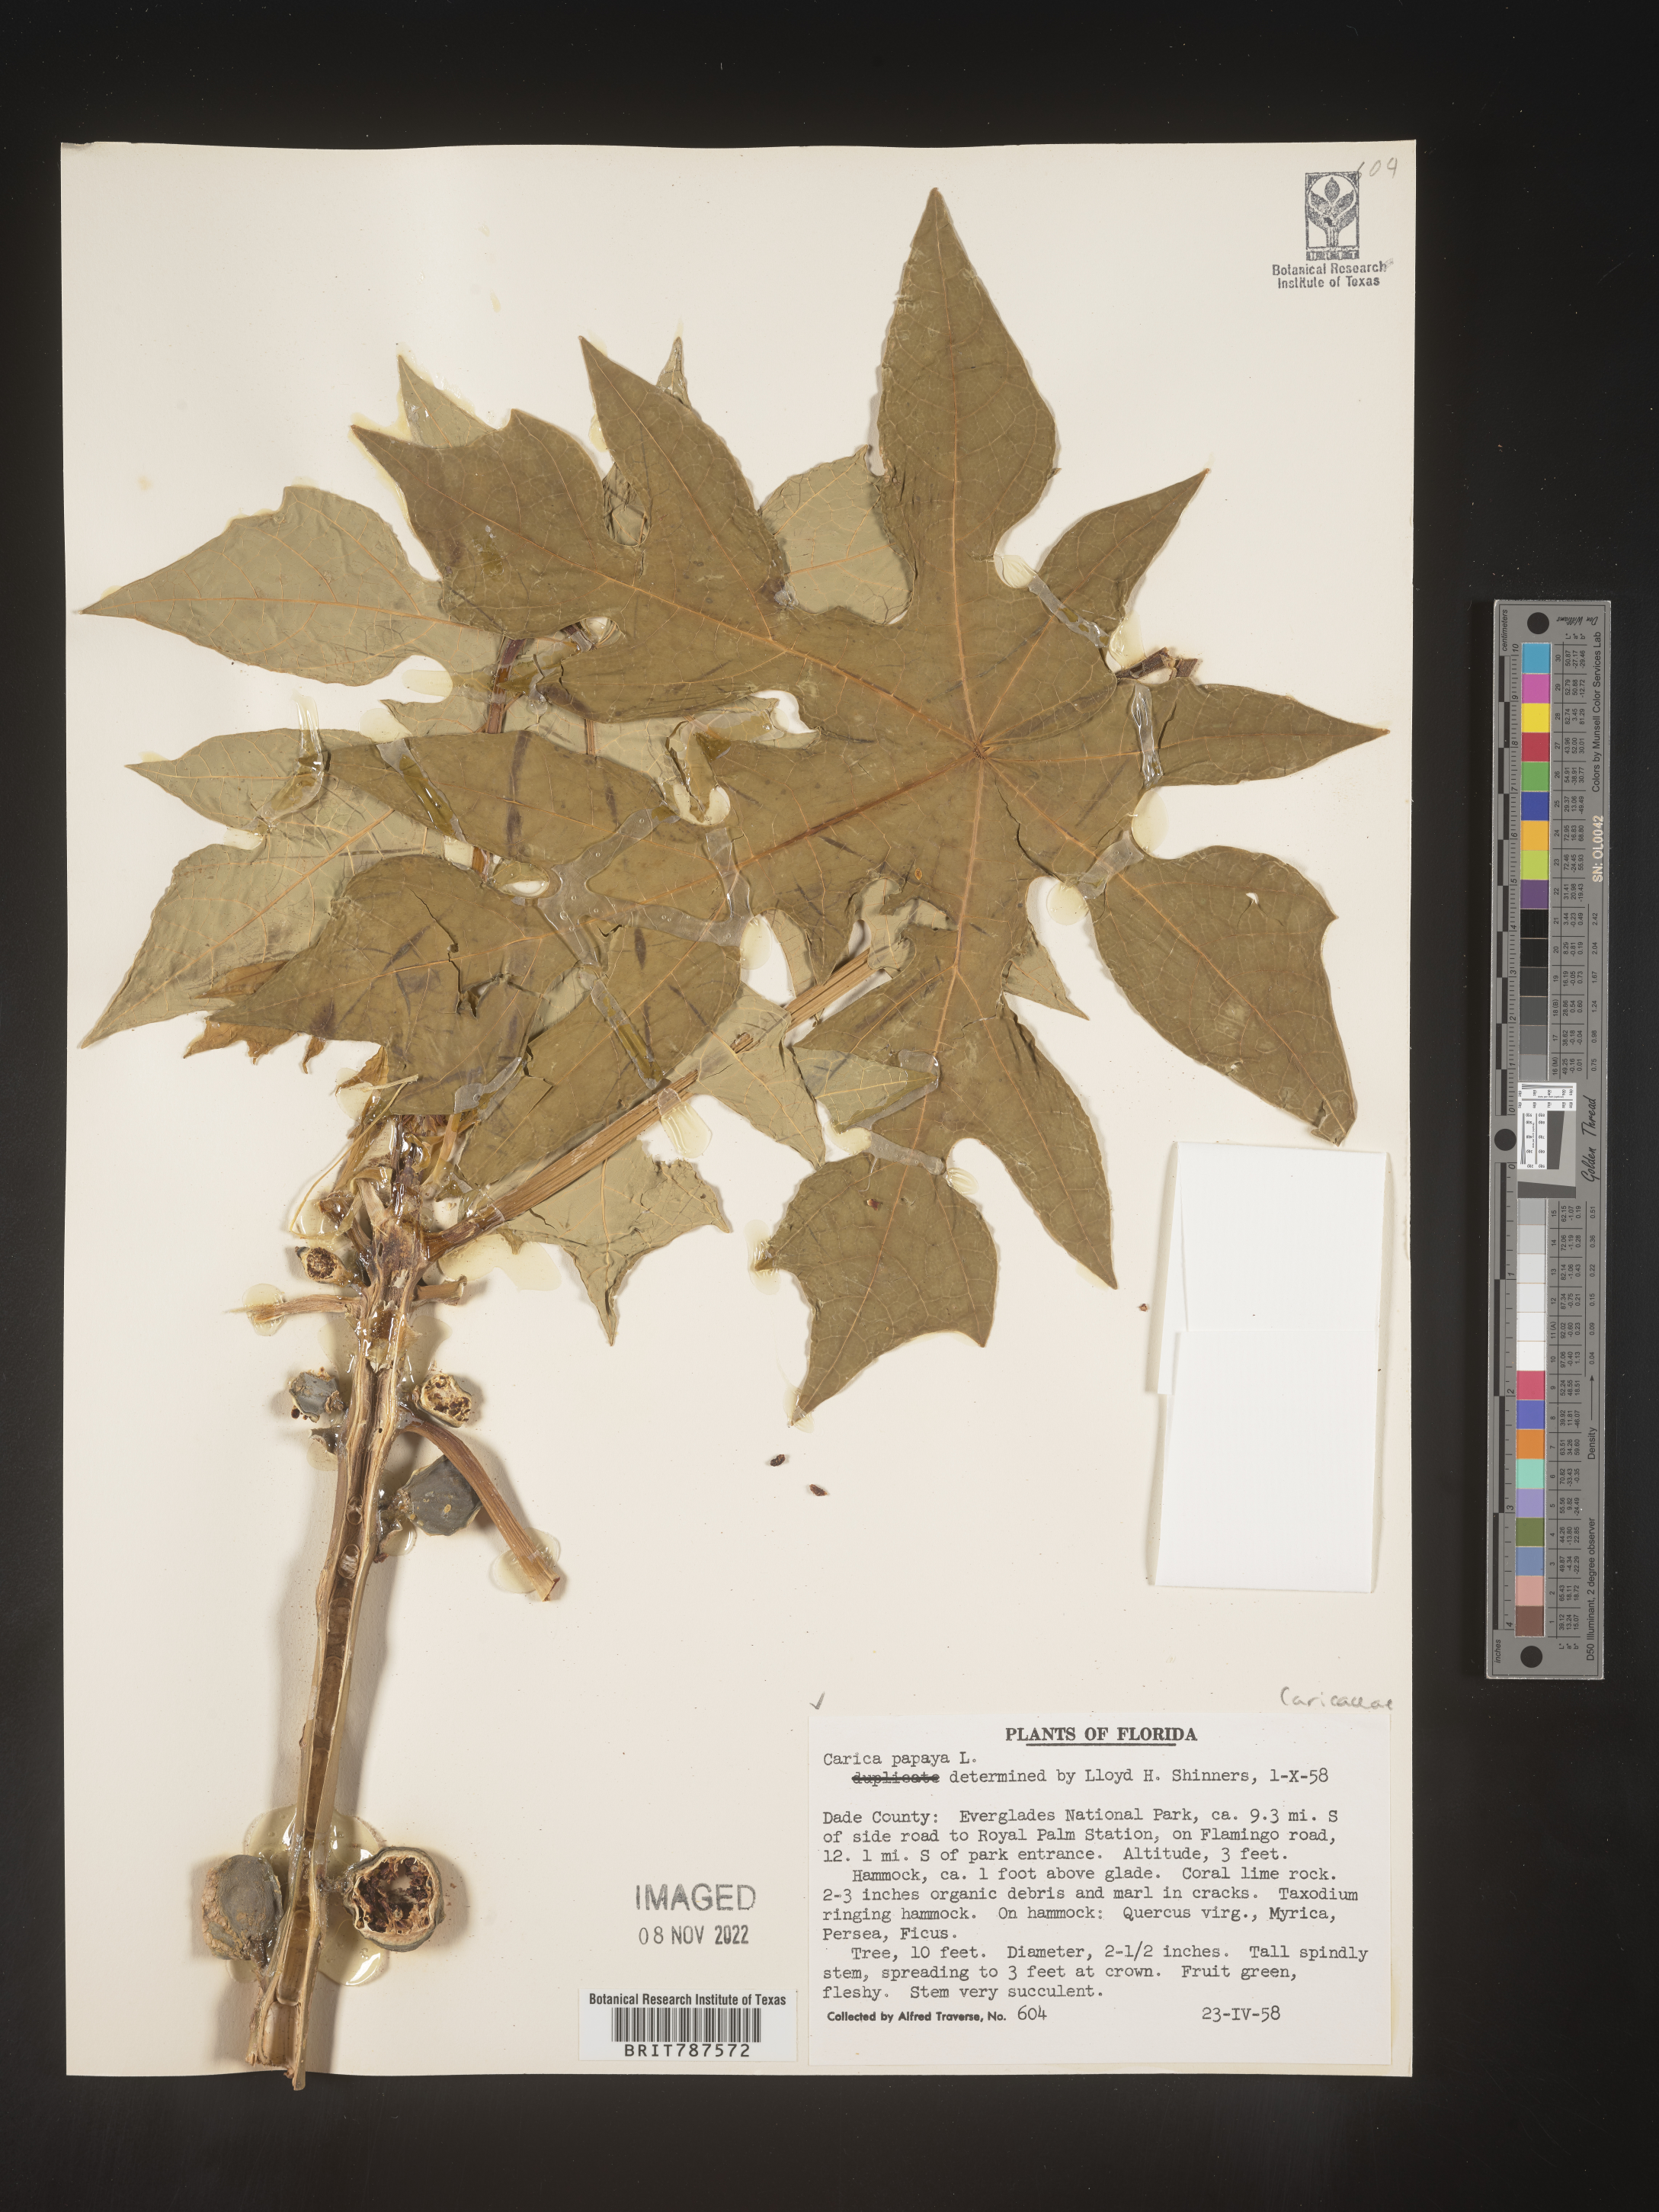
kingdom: Plantae
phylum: Tracheophyta
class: Magnoliopsida
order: Brassicales
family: Caricaceae
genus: Carica
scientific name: Carica
